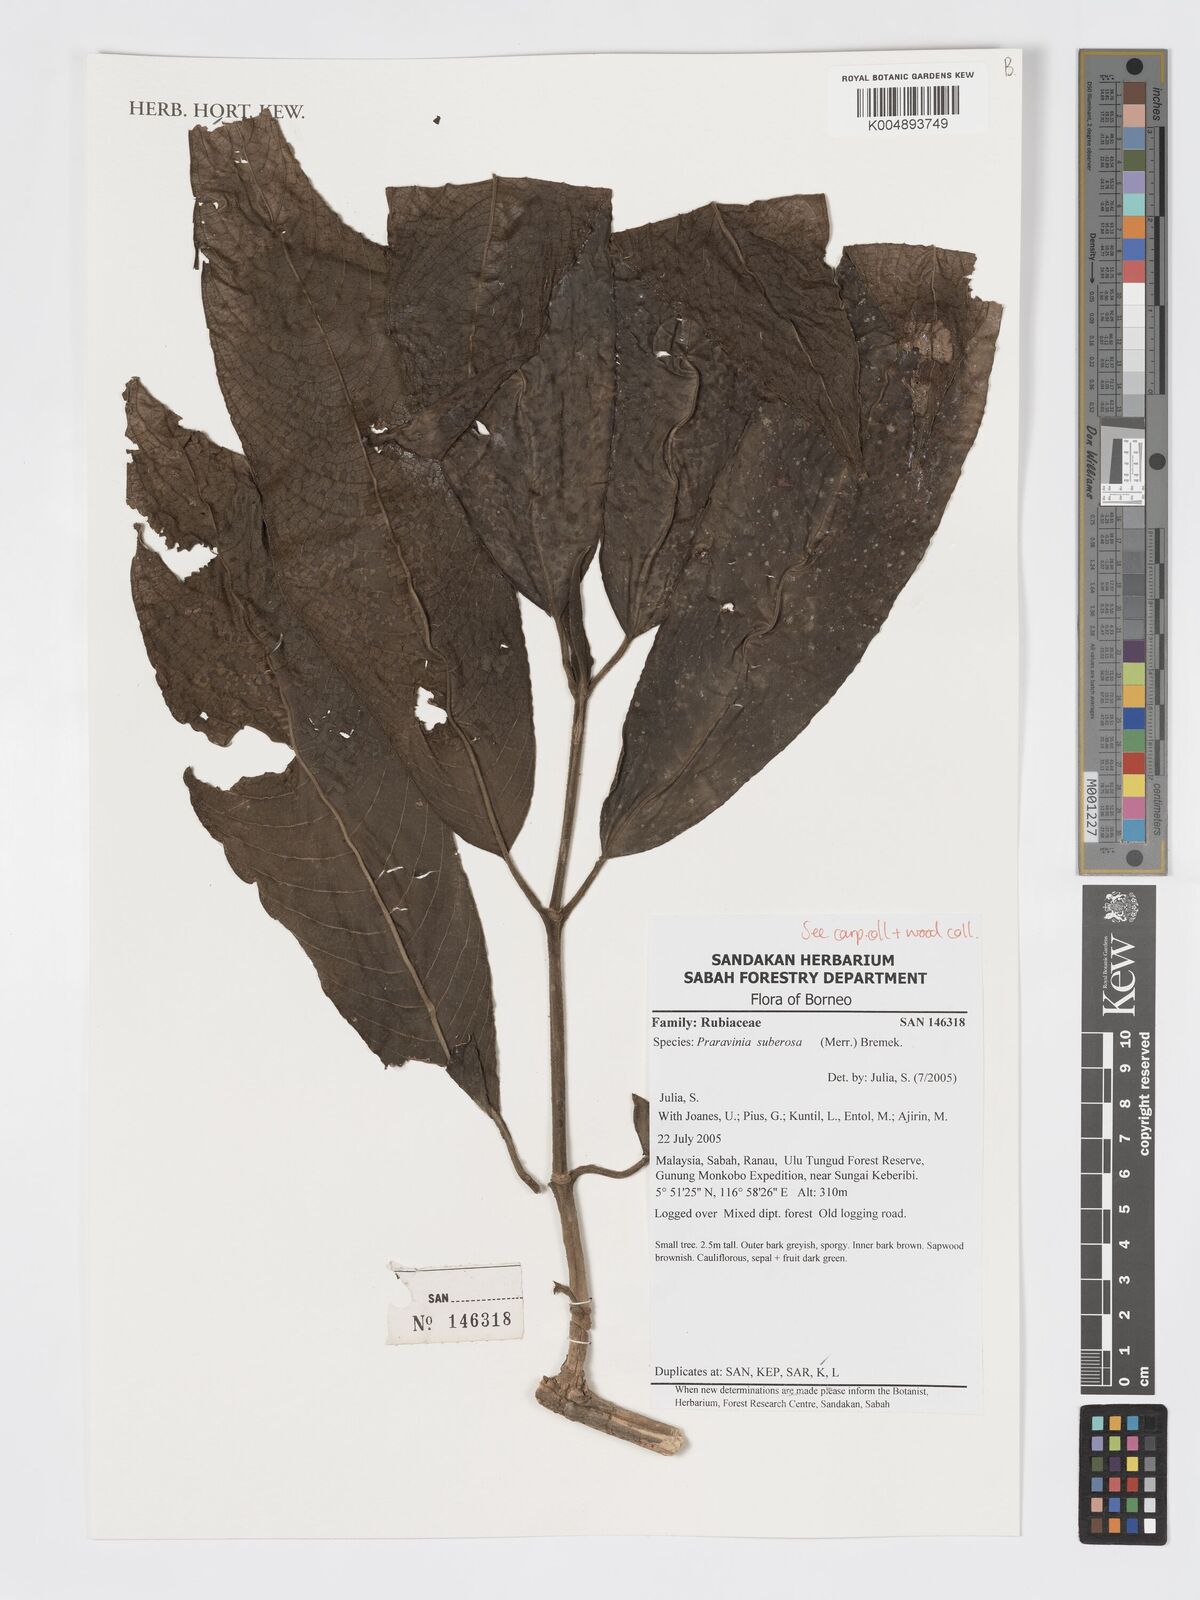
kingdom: Plantae
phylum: Tracheophyta
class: Magnoliopsida
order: Gentianales
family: Rubiaceae
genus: Praravinia
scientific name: Praravinia suberosa
